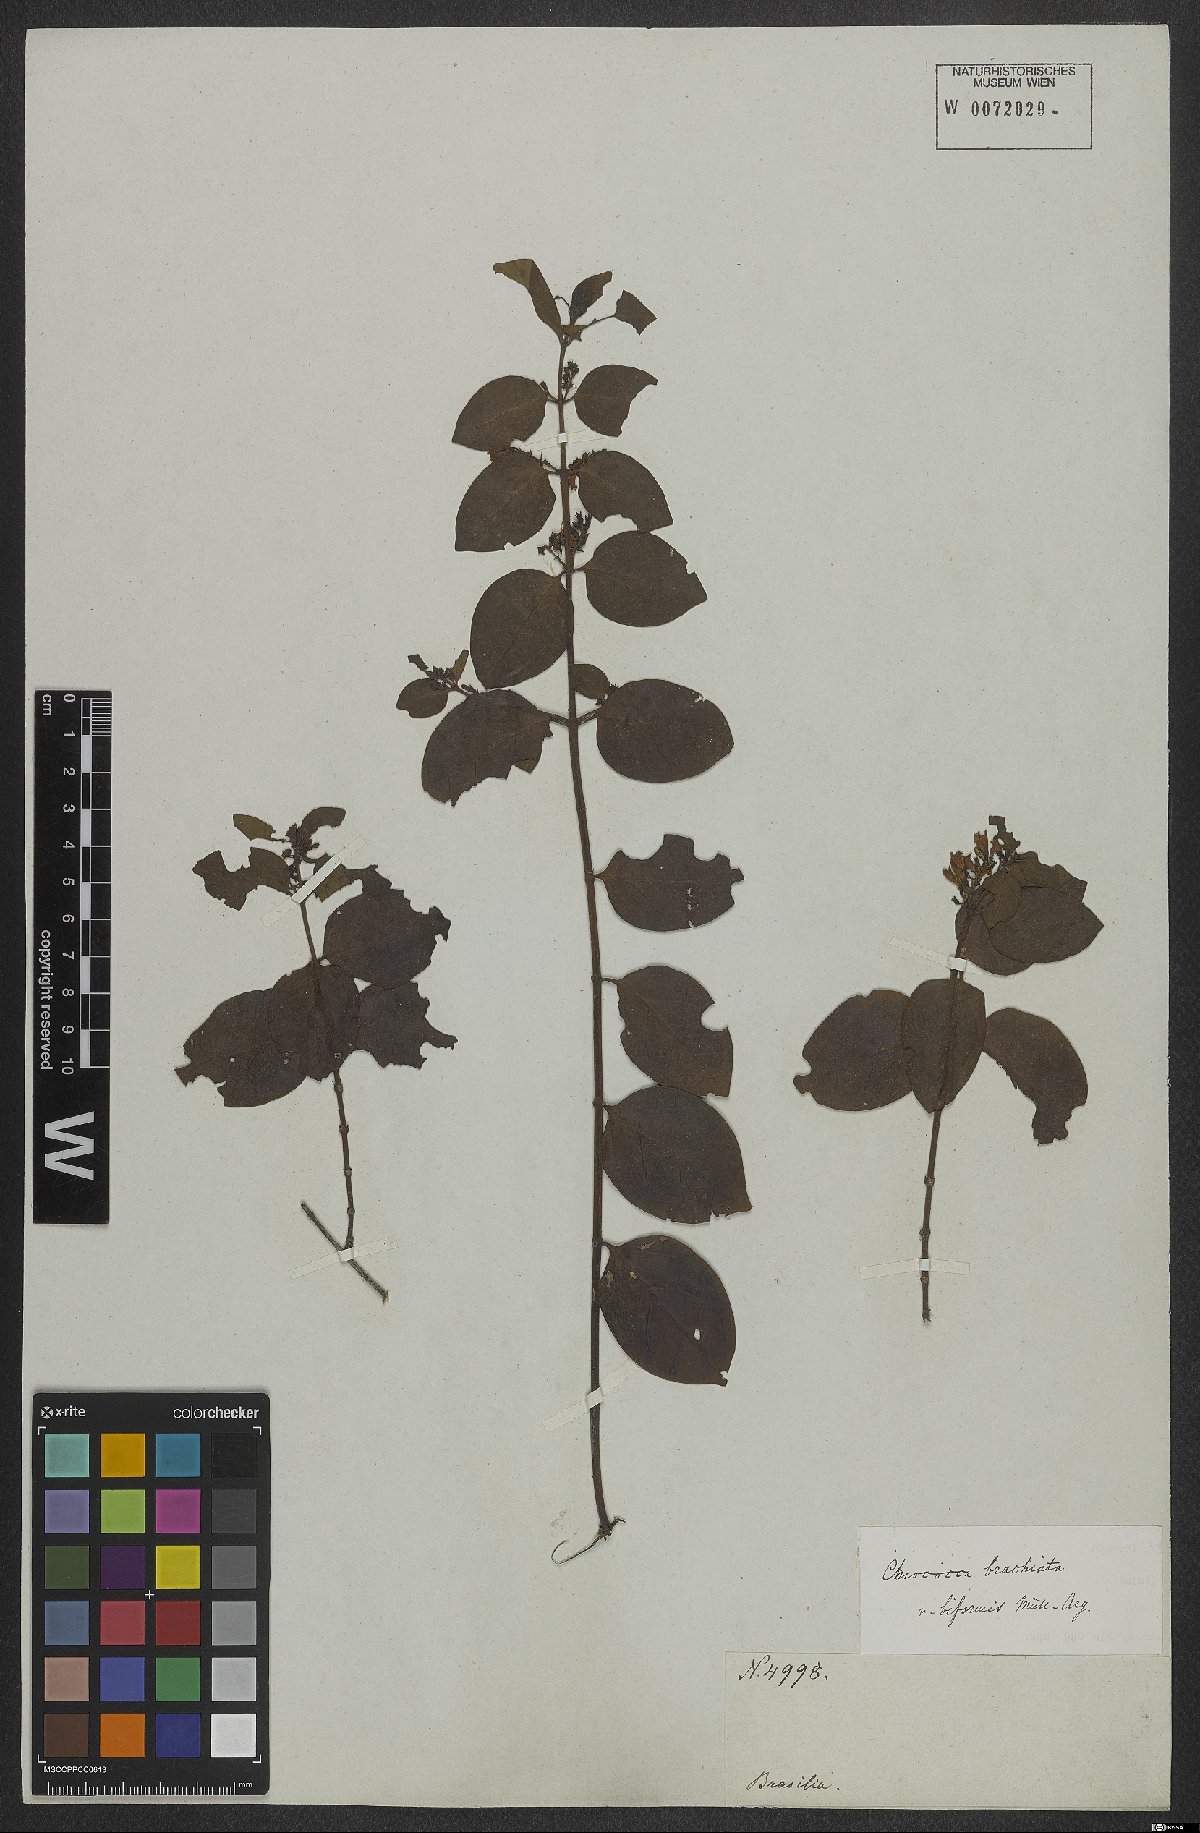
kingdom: Plantae
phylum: Tracheophyta
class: Magnoliopsida
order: Gentianales
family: Rubiaceae
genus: Chiococca
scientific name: Chiococca alba
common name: Snowberry
